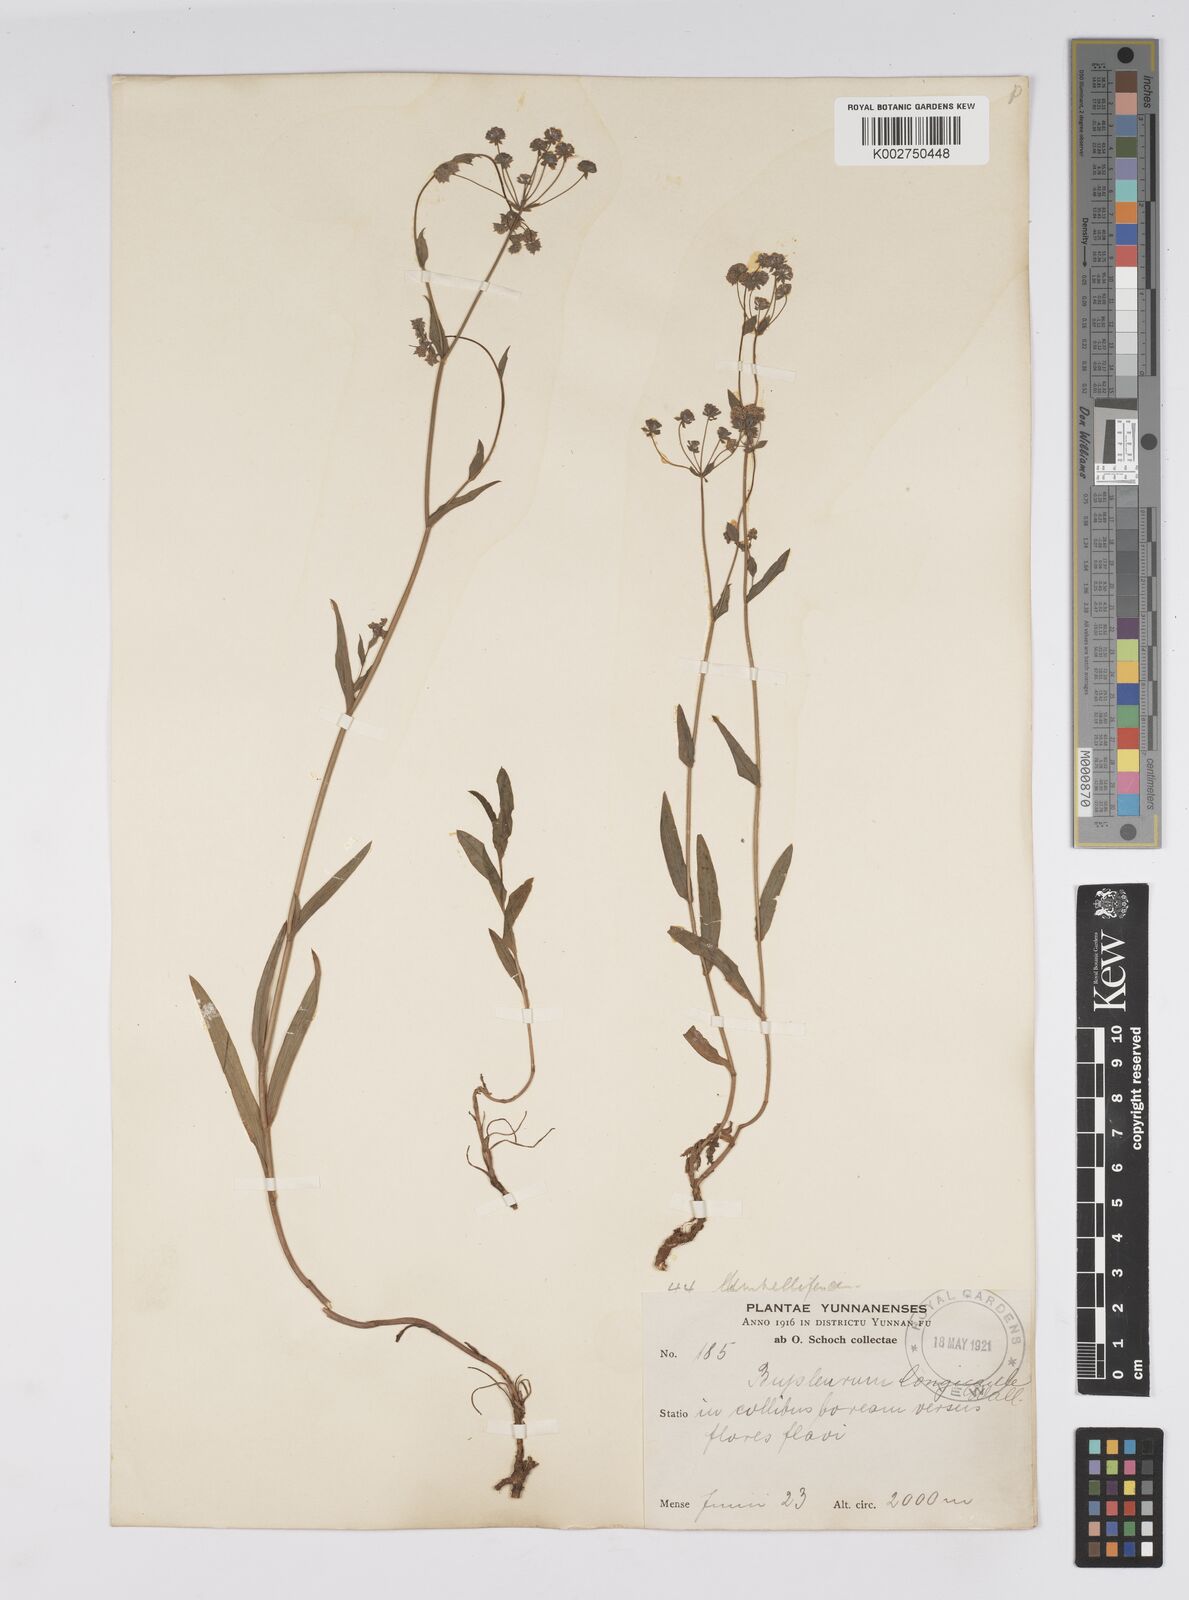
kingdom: Plantae
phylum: Tracheophyta
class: Magnoliopsida
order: Apiales
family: Apiaceae
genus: Bupleurum
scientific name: Bupleurum longicaule
